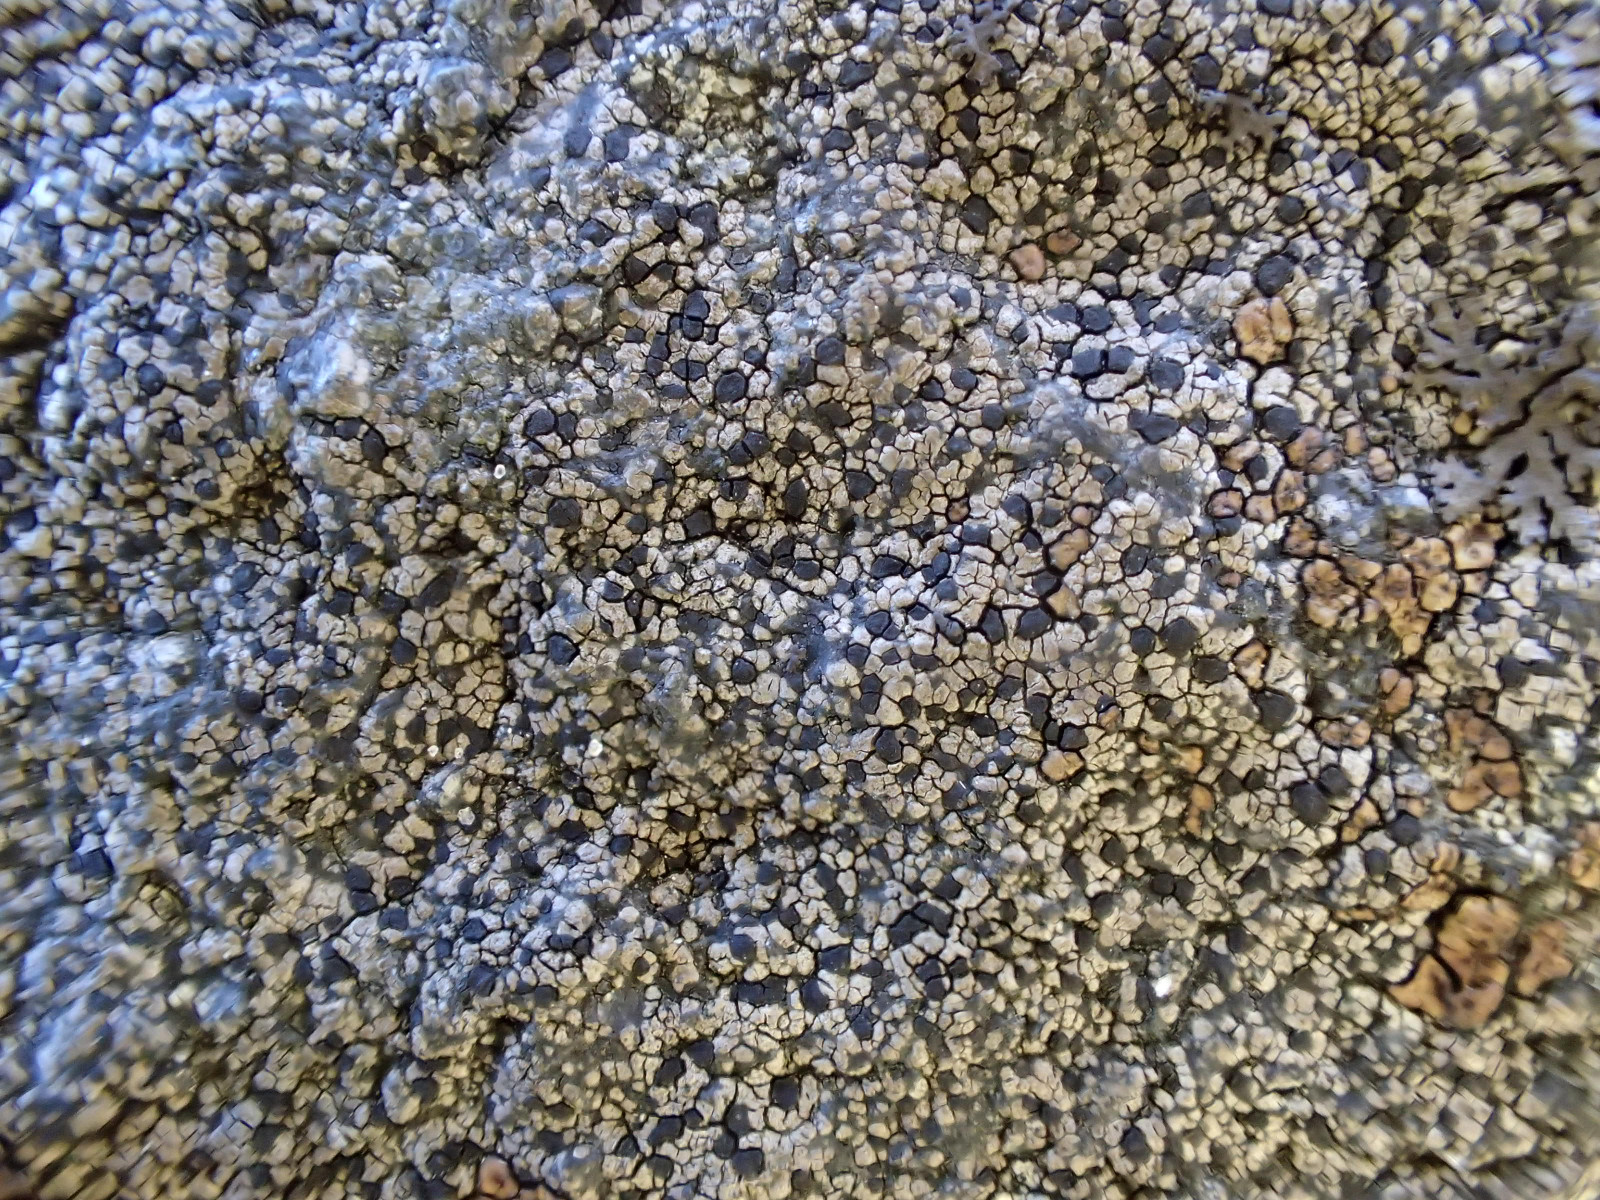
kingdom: Fungi
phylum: Ascomycota
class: Lecanoromycetes
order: Rhizocarpales
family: Rhizocarpaceae
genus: Rhizocarpon
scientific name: Rhizocarpon reductum
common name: mørk landkortlav
